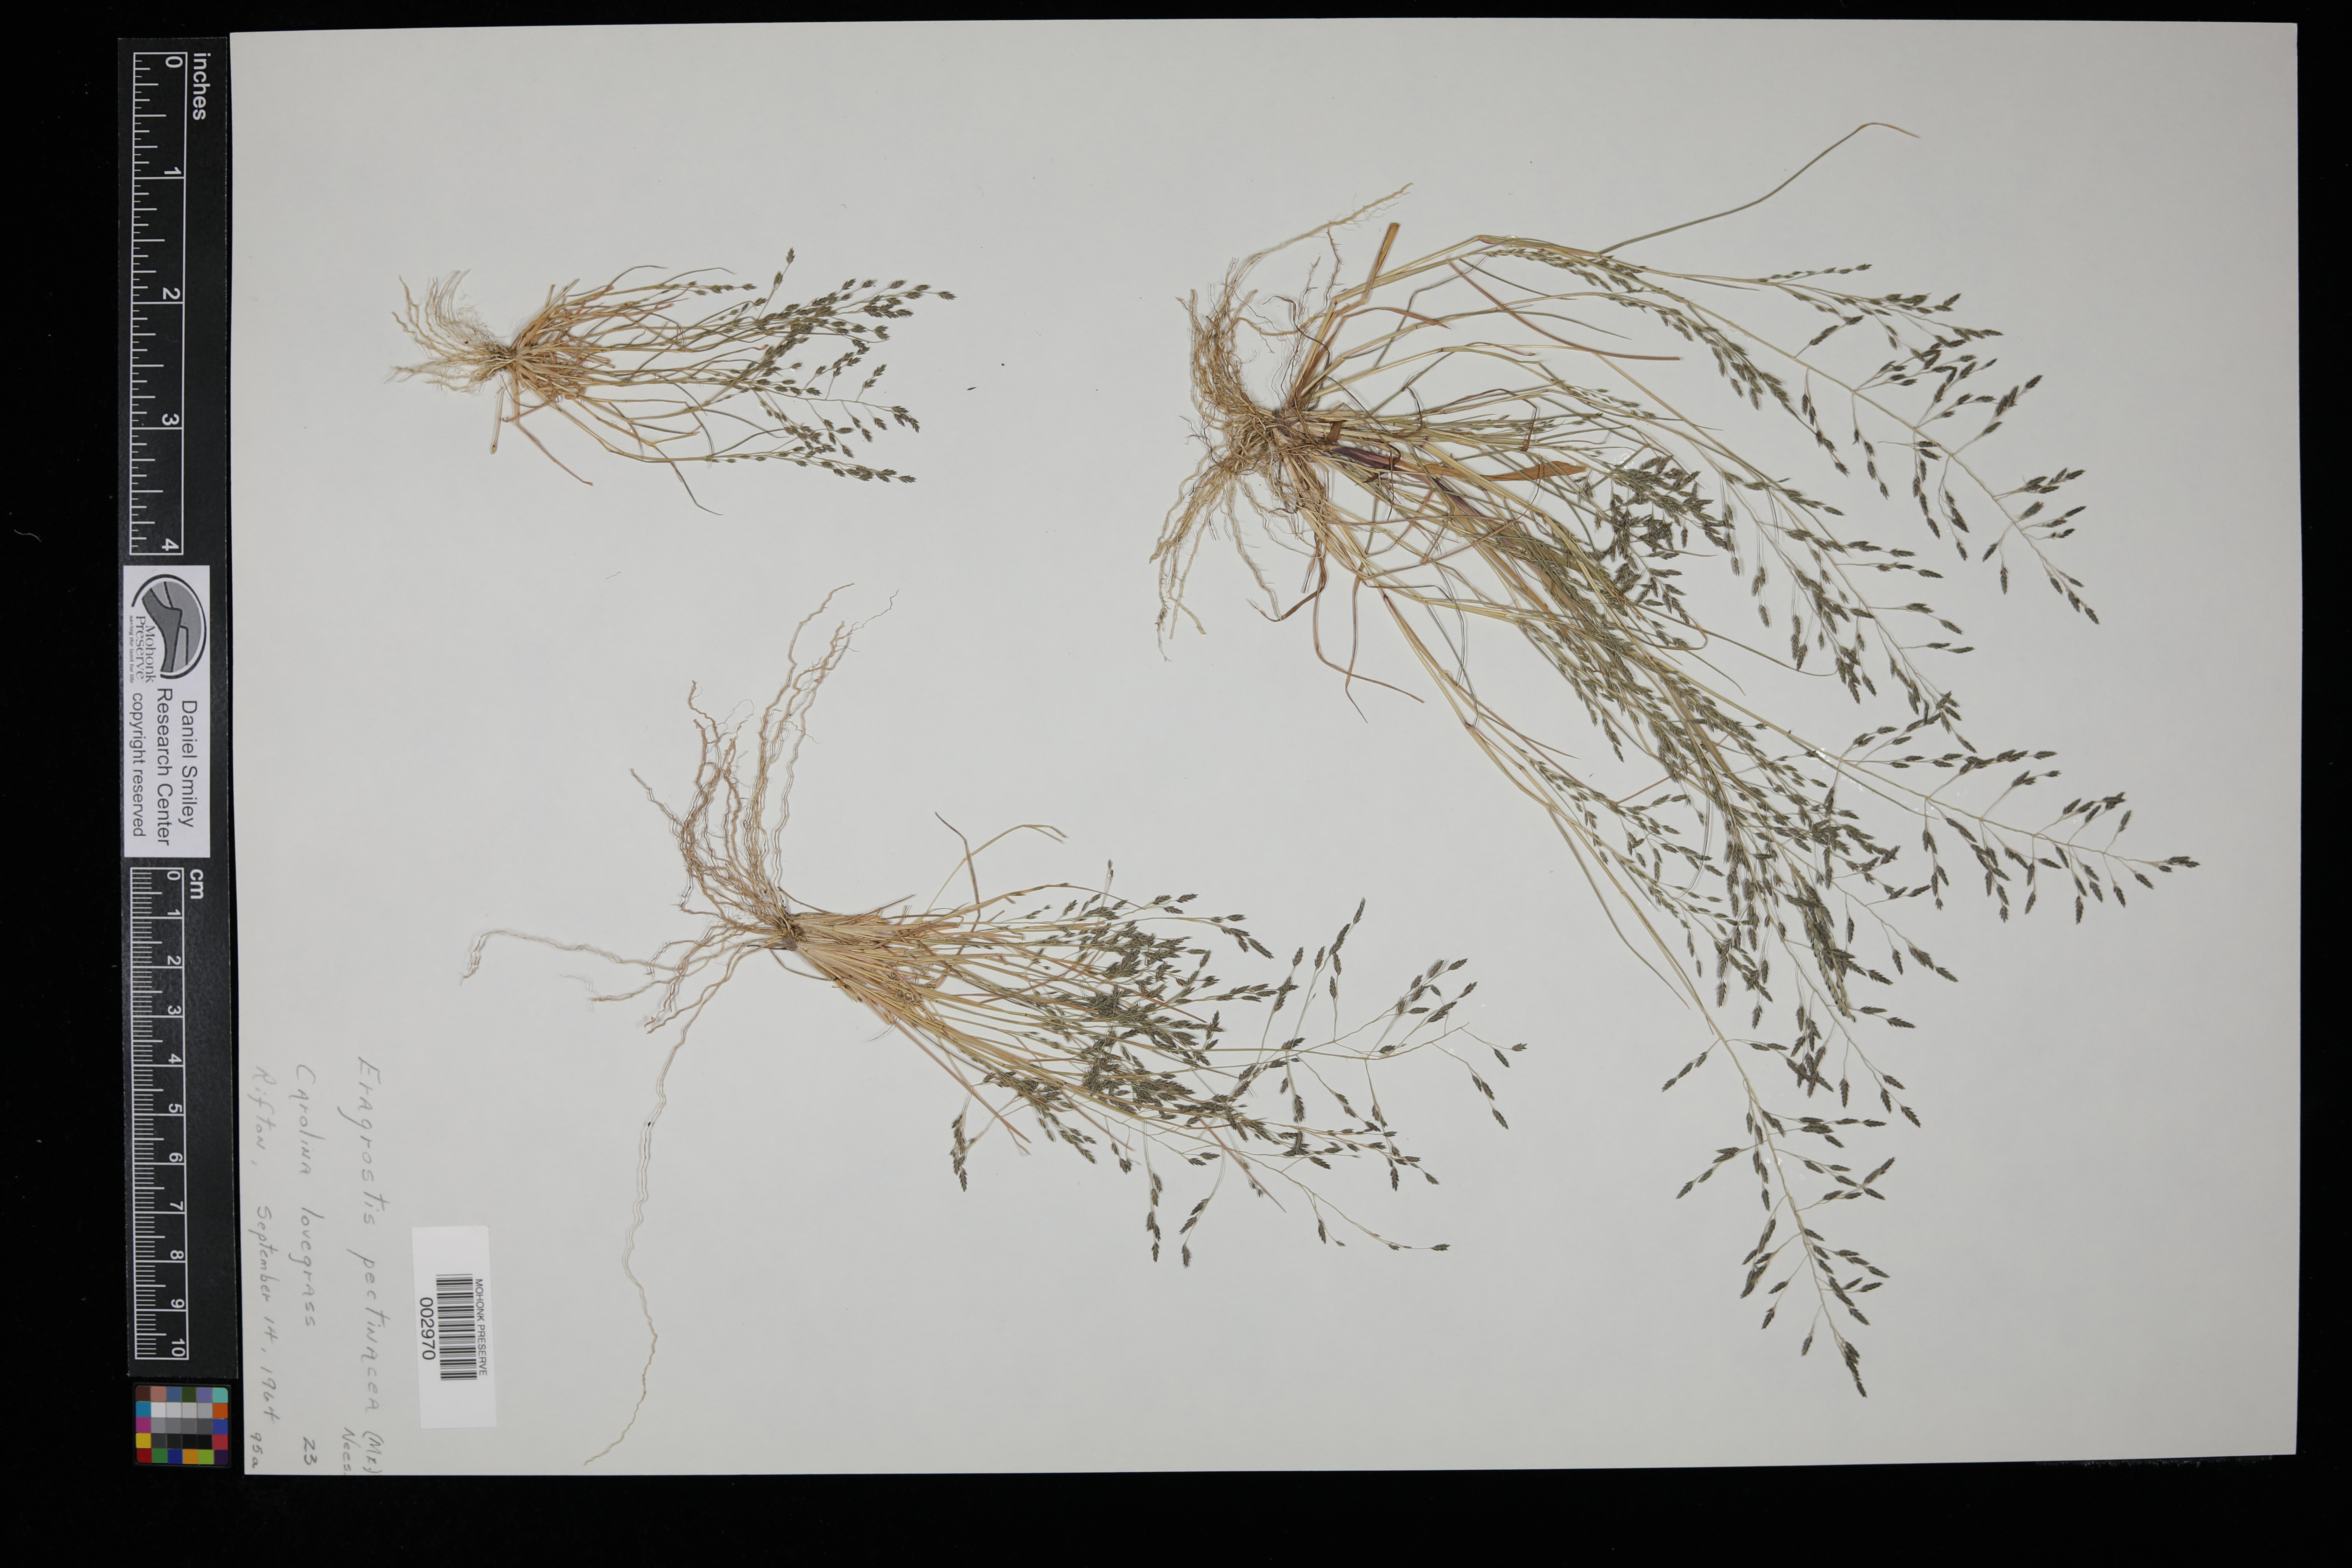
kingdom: Plantae
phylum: Tracheophyta
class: Liliopsida
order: Poales
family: Poaceae
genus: Eragrostis
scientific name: Eragrostis pectinacea
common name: Tufted lovegrass
